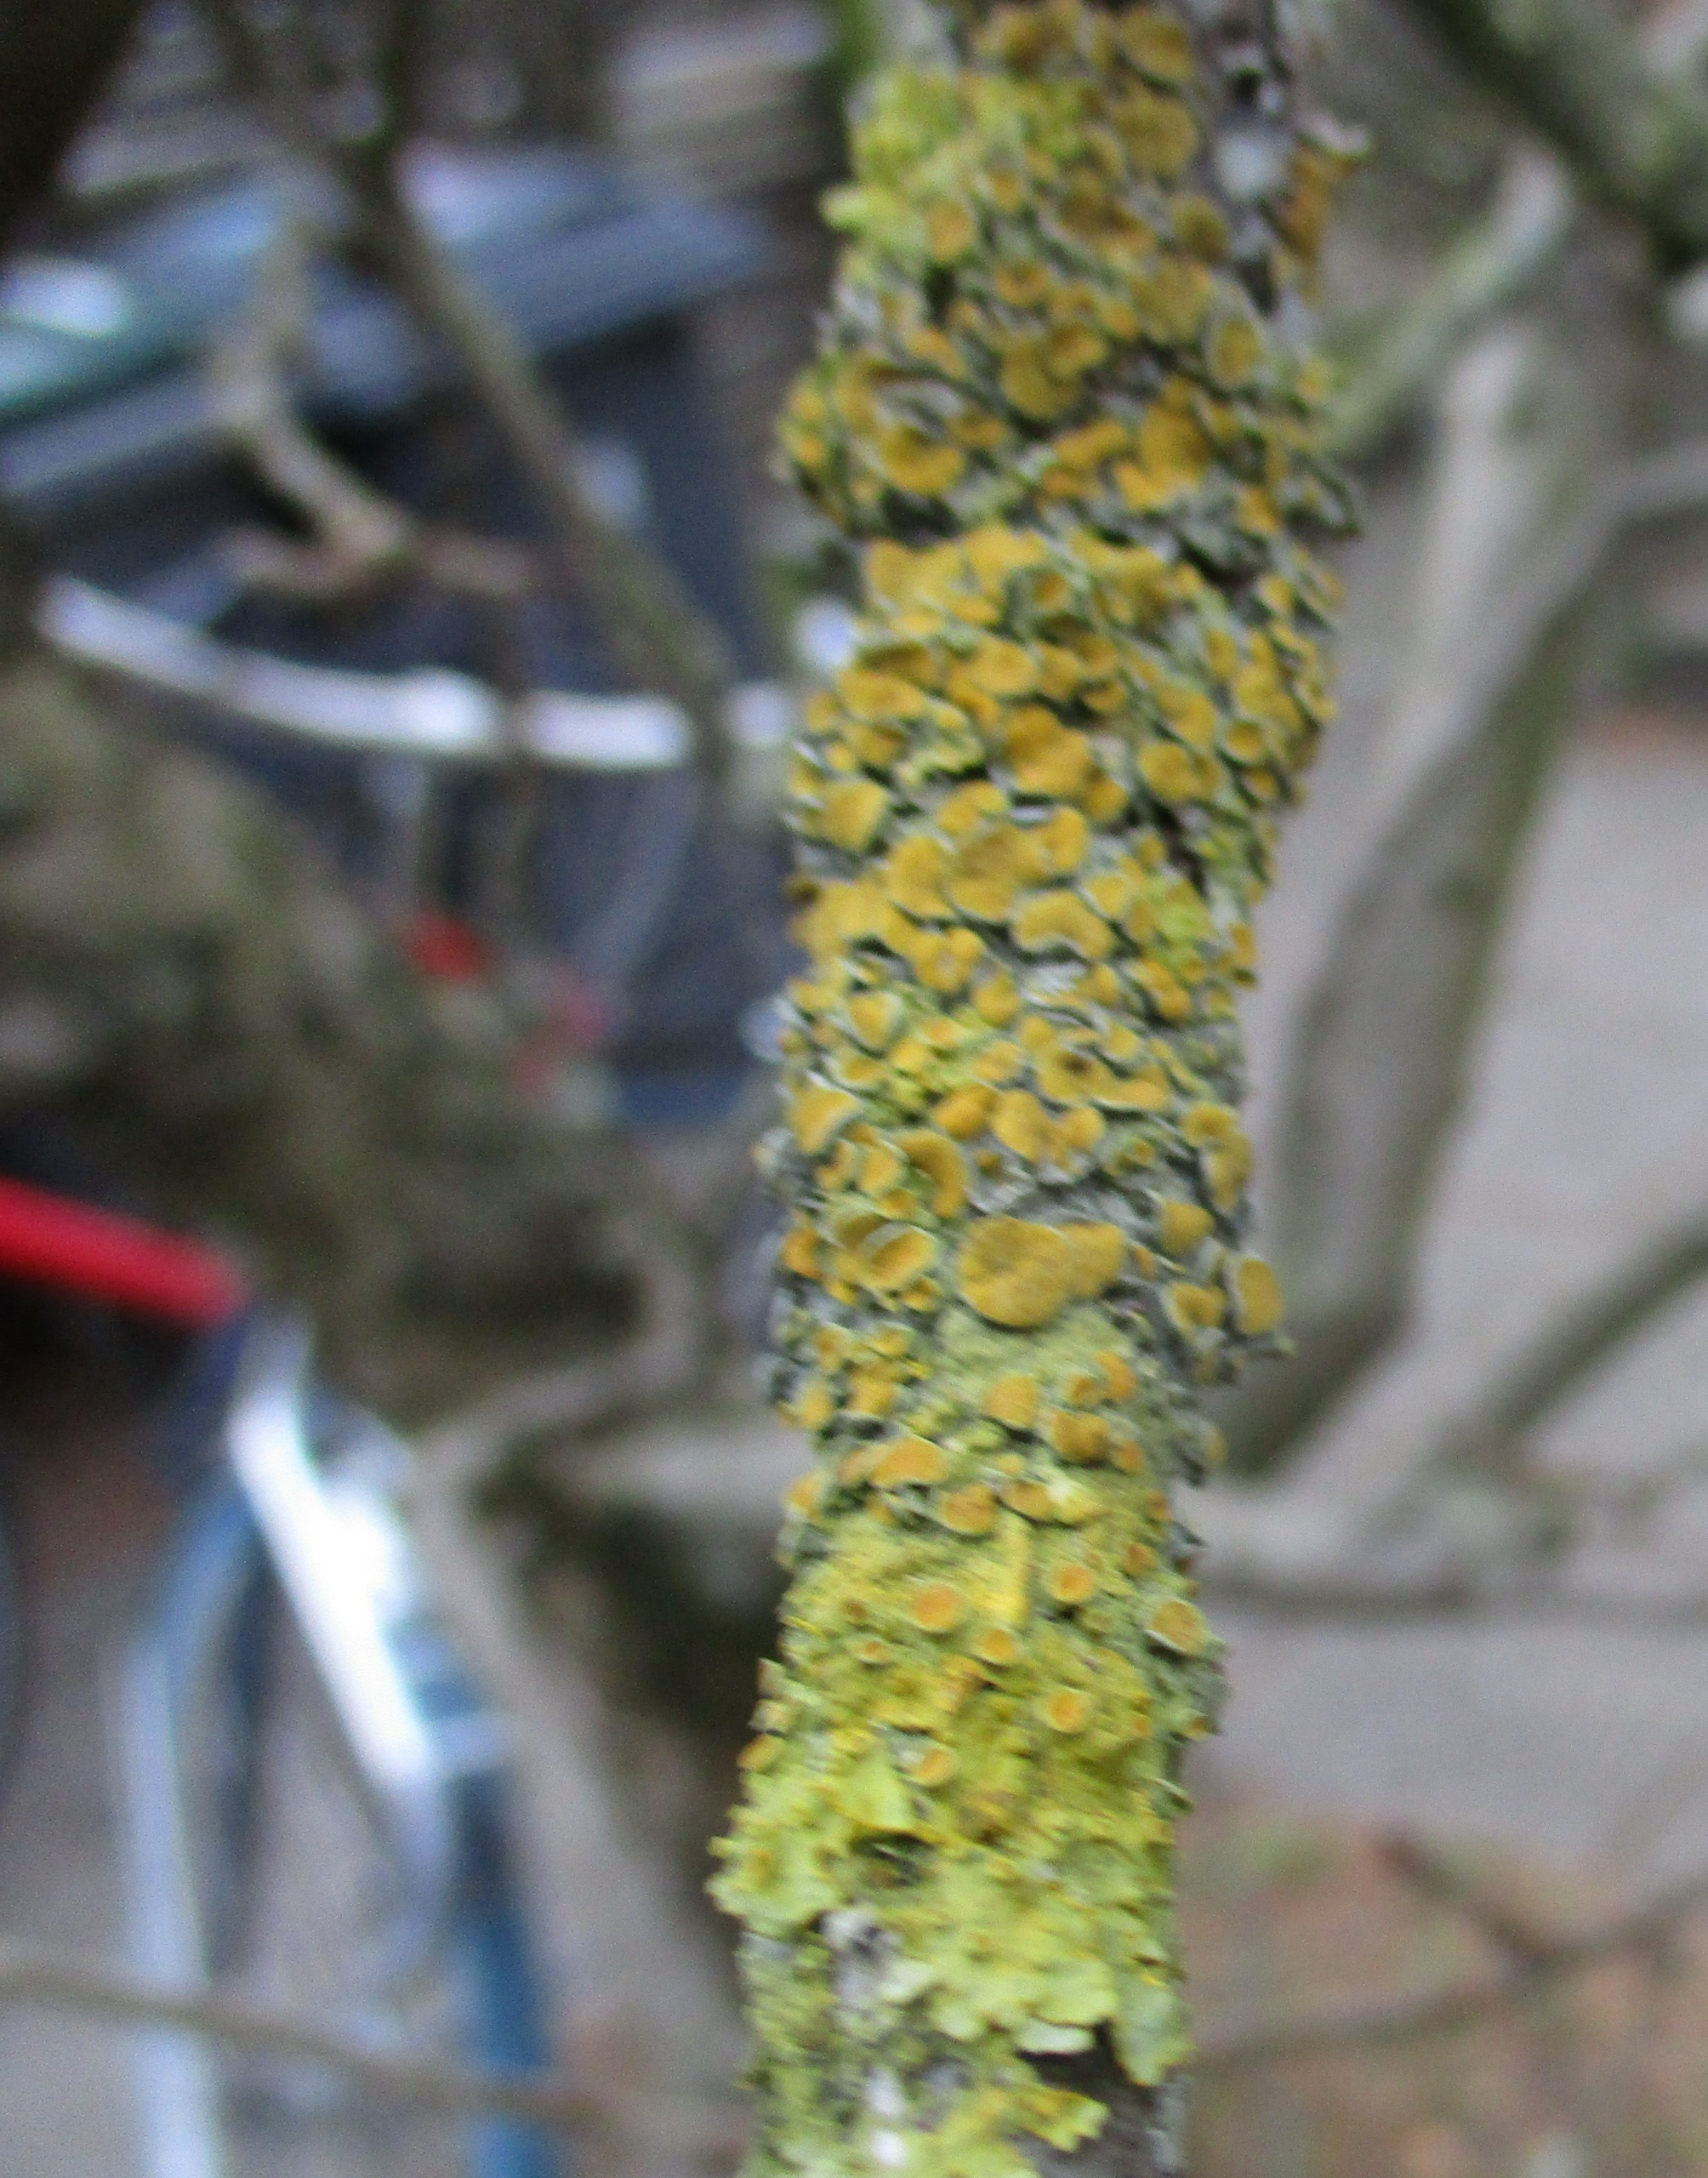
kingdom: Fungi
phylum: Ascomycota
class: Lecanoromycetes
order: Teloschistales
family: Teloschistaceae
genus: Xanthoria
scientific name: Xanthoria parietina
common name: Almindelig væggelav
